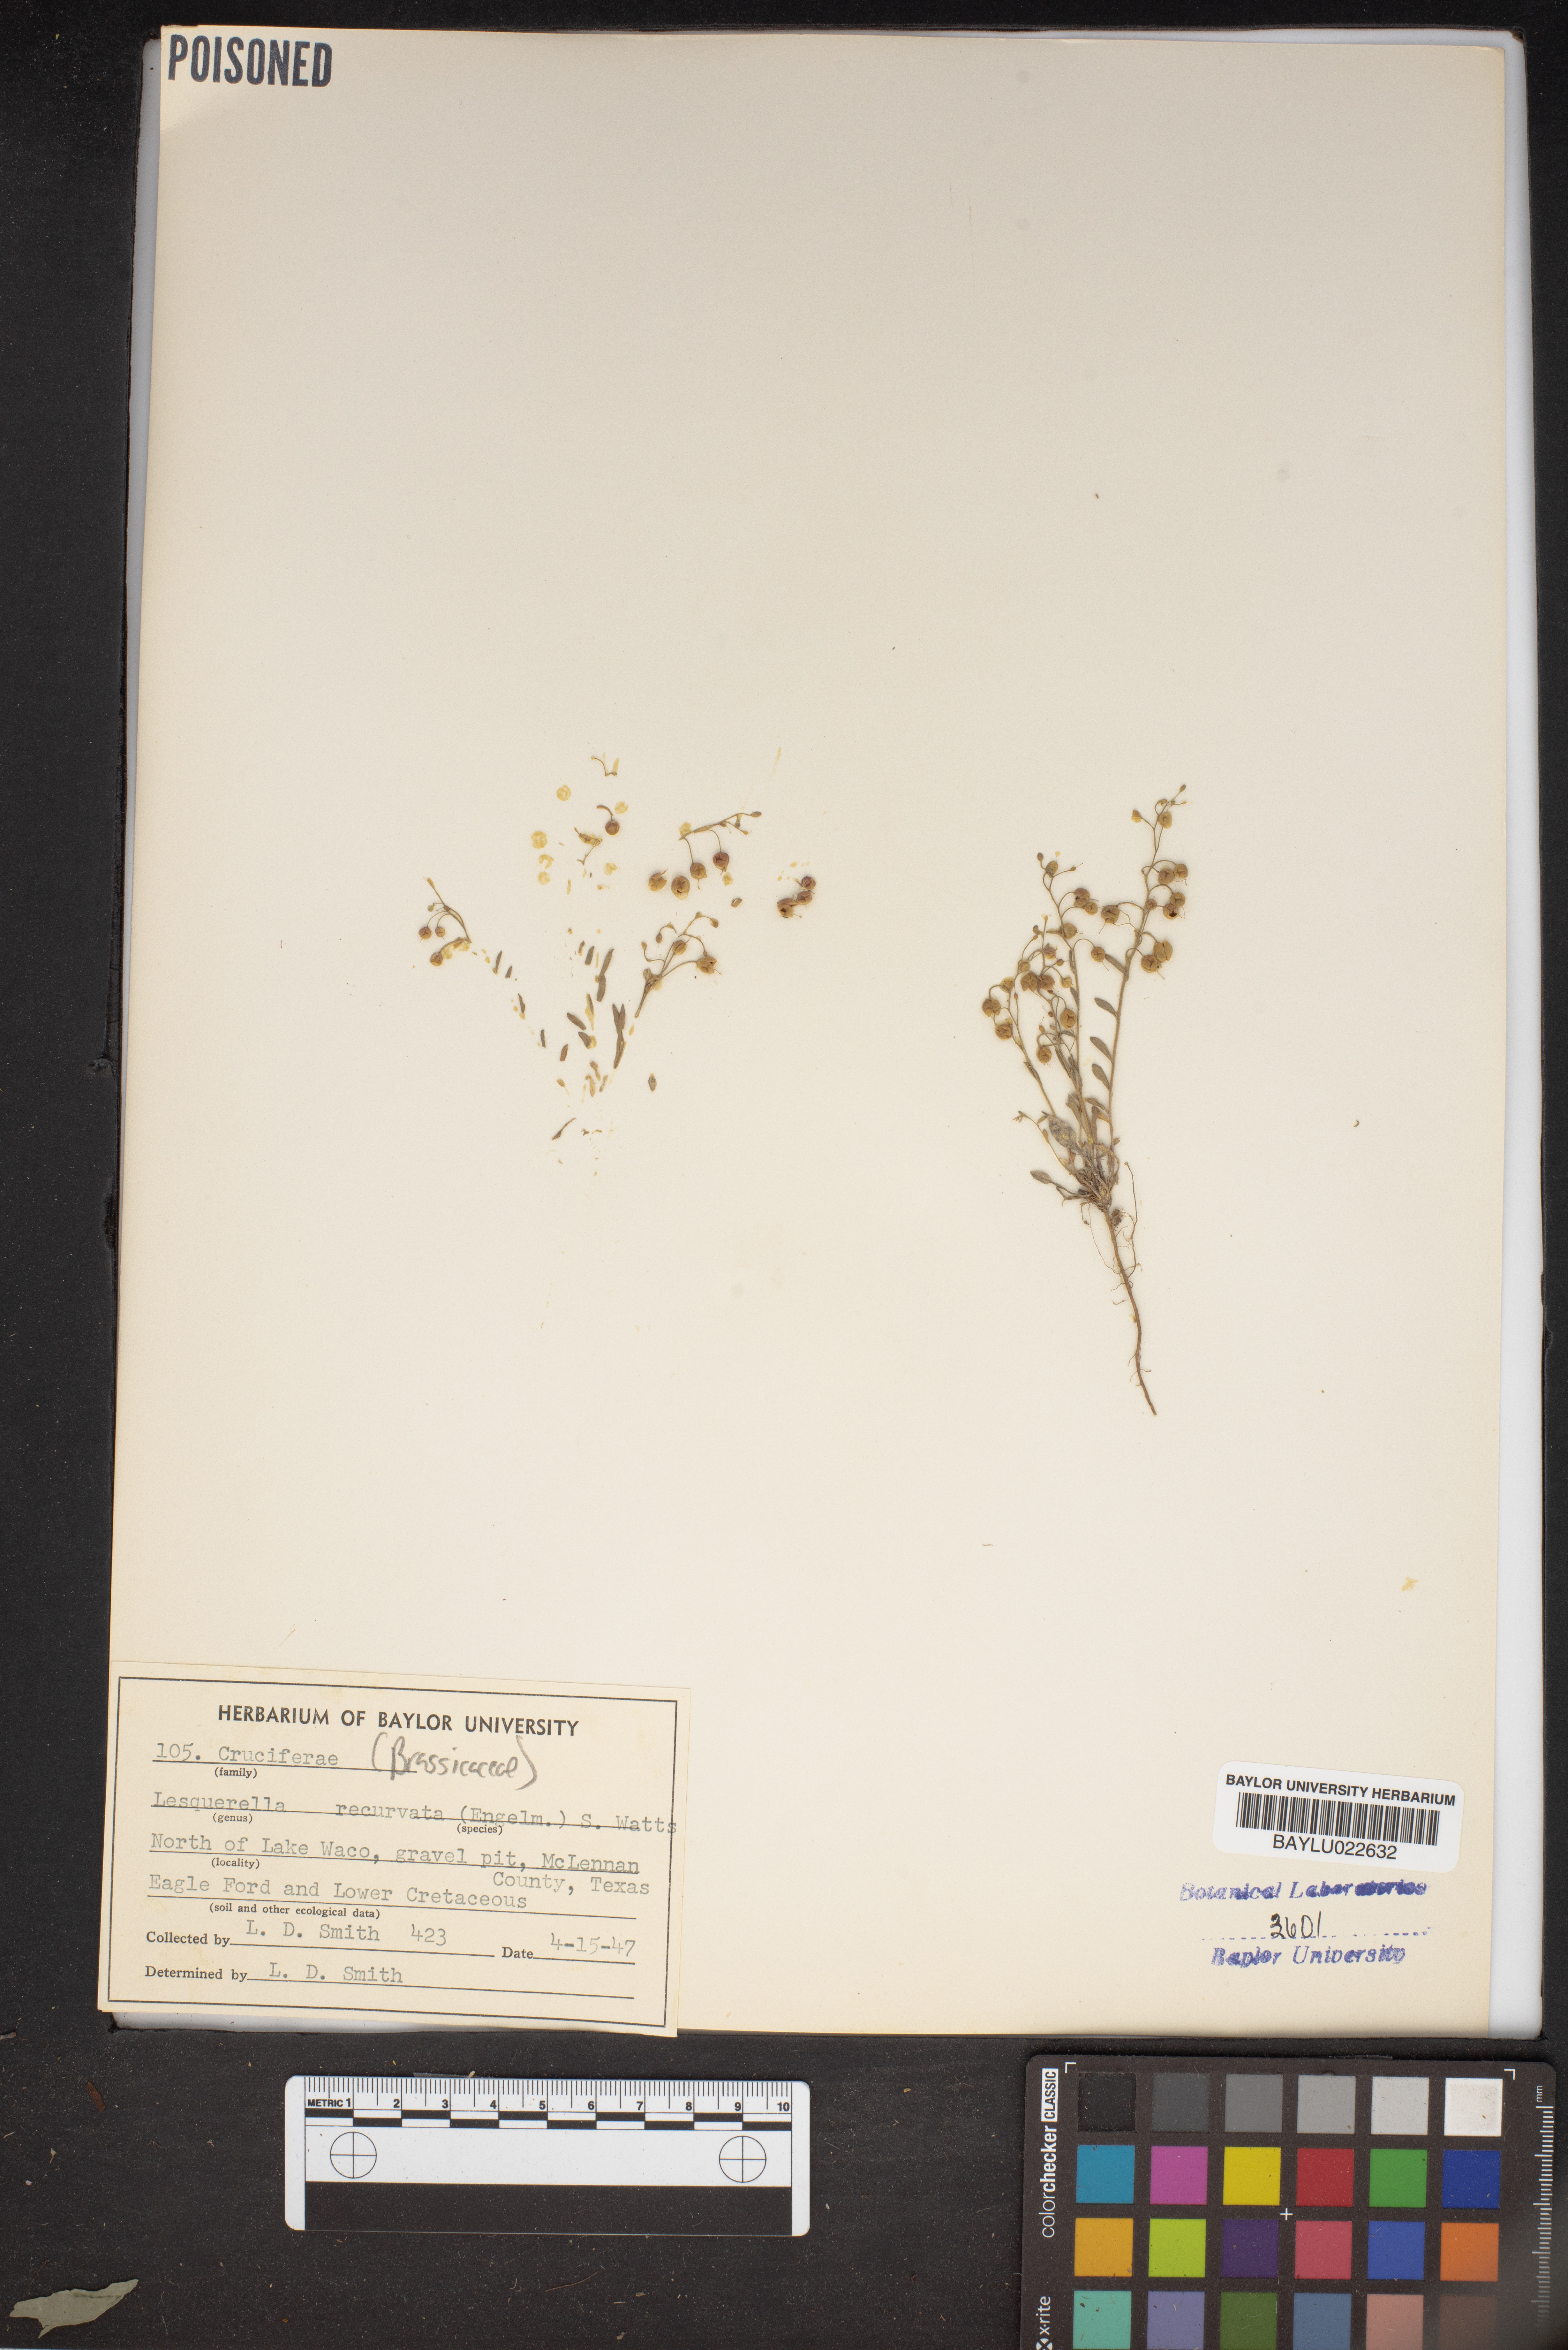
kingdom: Plantae
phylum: Tracheophyta
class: Magnoliopsida
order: Brassicales
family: Brassicaceae
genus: Physaria
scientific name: Physaria recurvata
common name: Gaslight bladderpod
